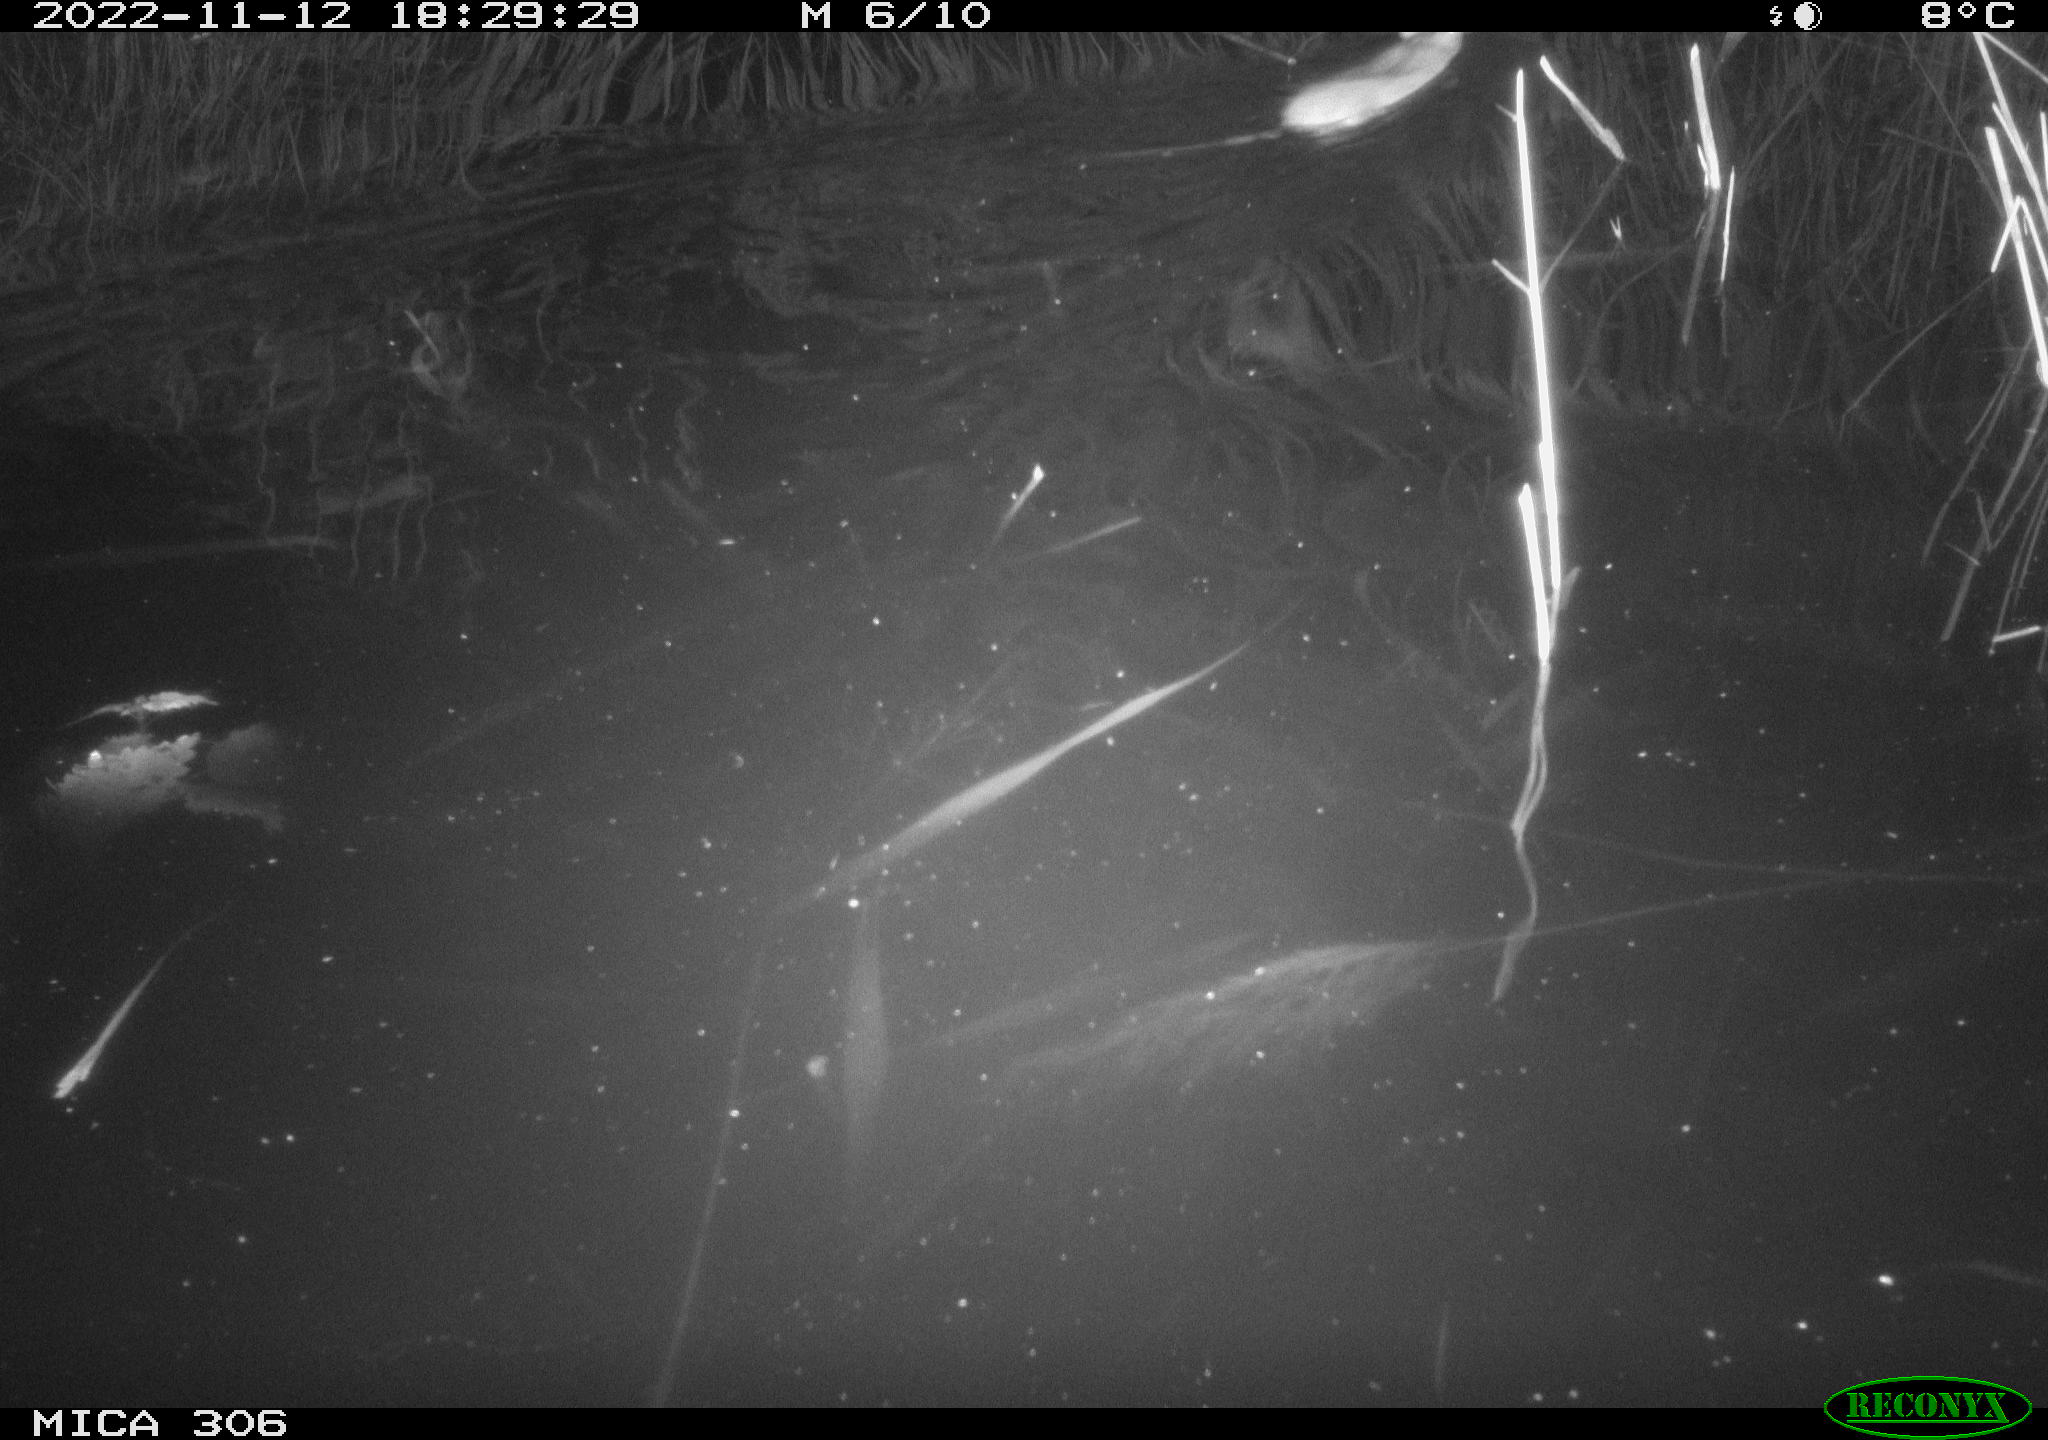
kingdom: Animalia
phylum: Chordata
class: Mammalia
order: Rodentia
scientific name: Rodentia
